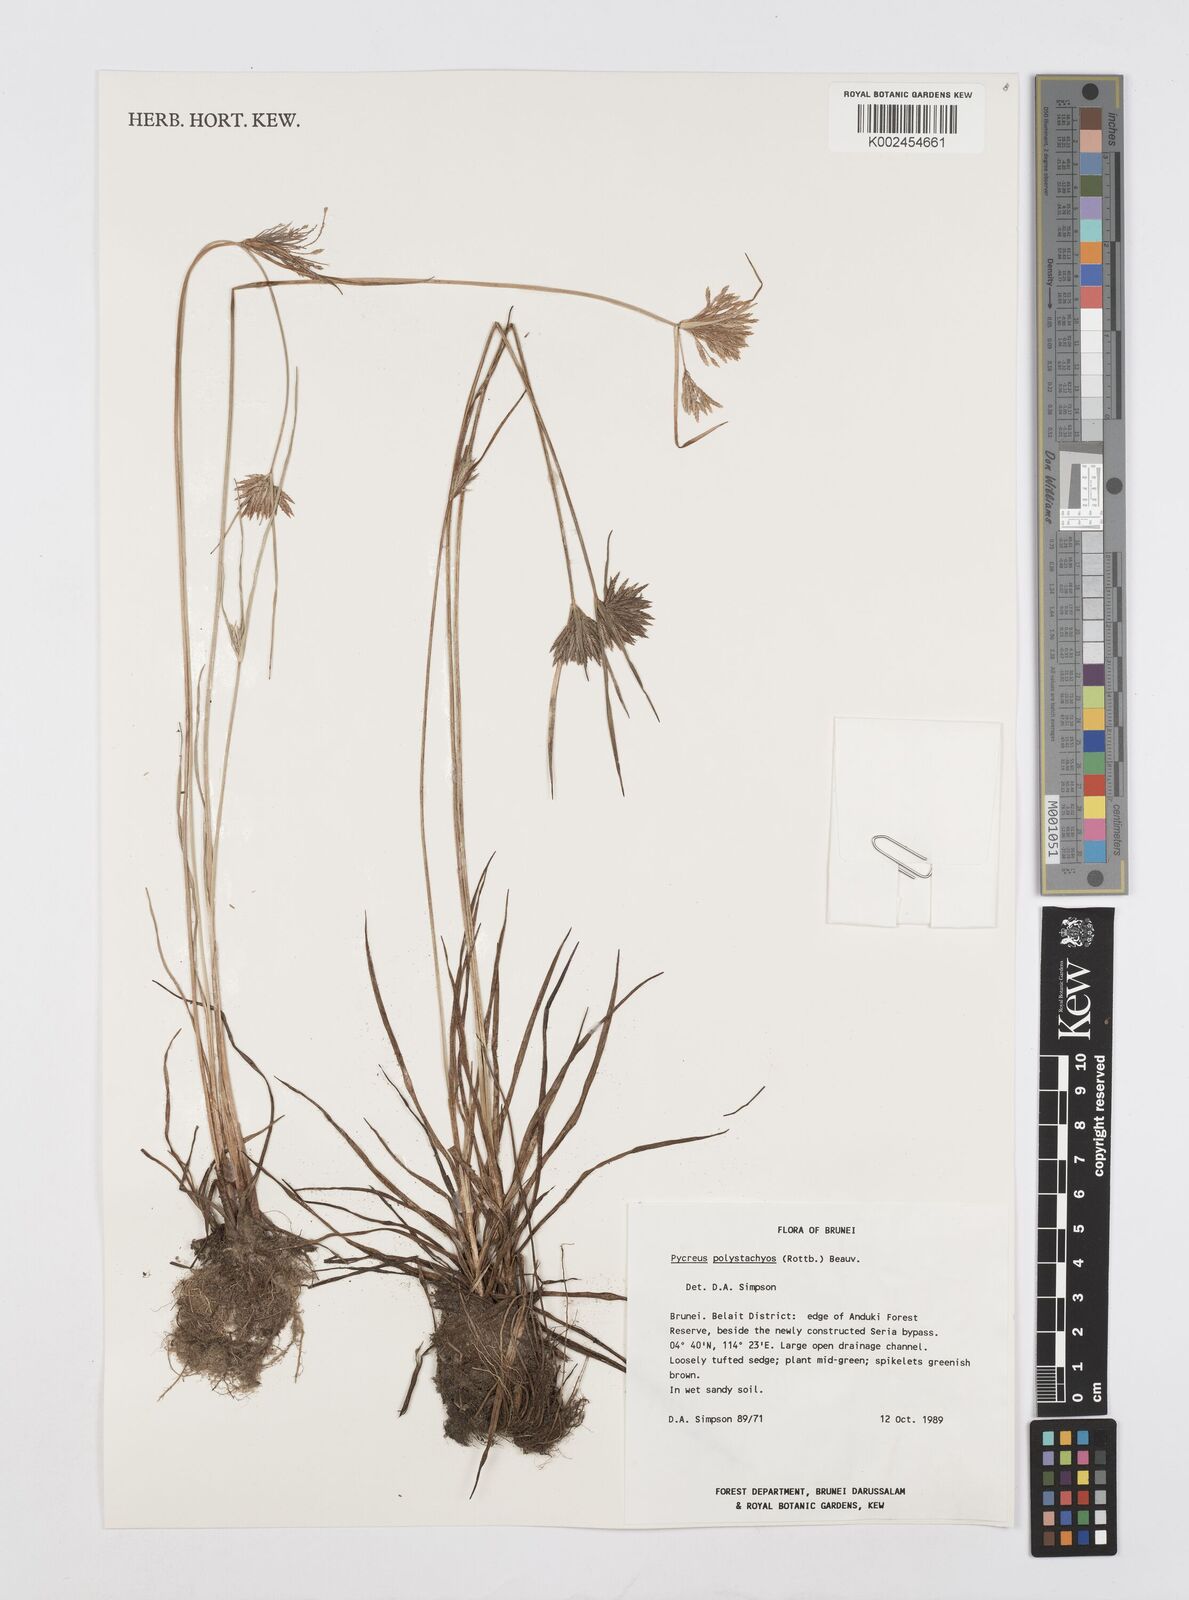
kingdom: Plantae
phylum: Tracheophyta
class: Liliopsida
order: Poales
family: Cyperaceae
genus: Cyperus
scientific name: Cyperus polystachyos
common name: Bunchy flat sedge
